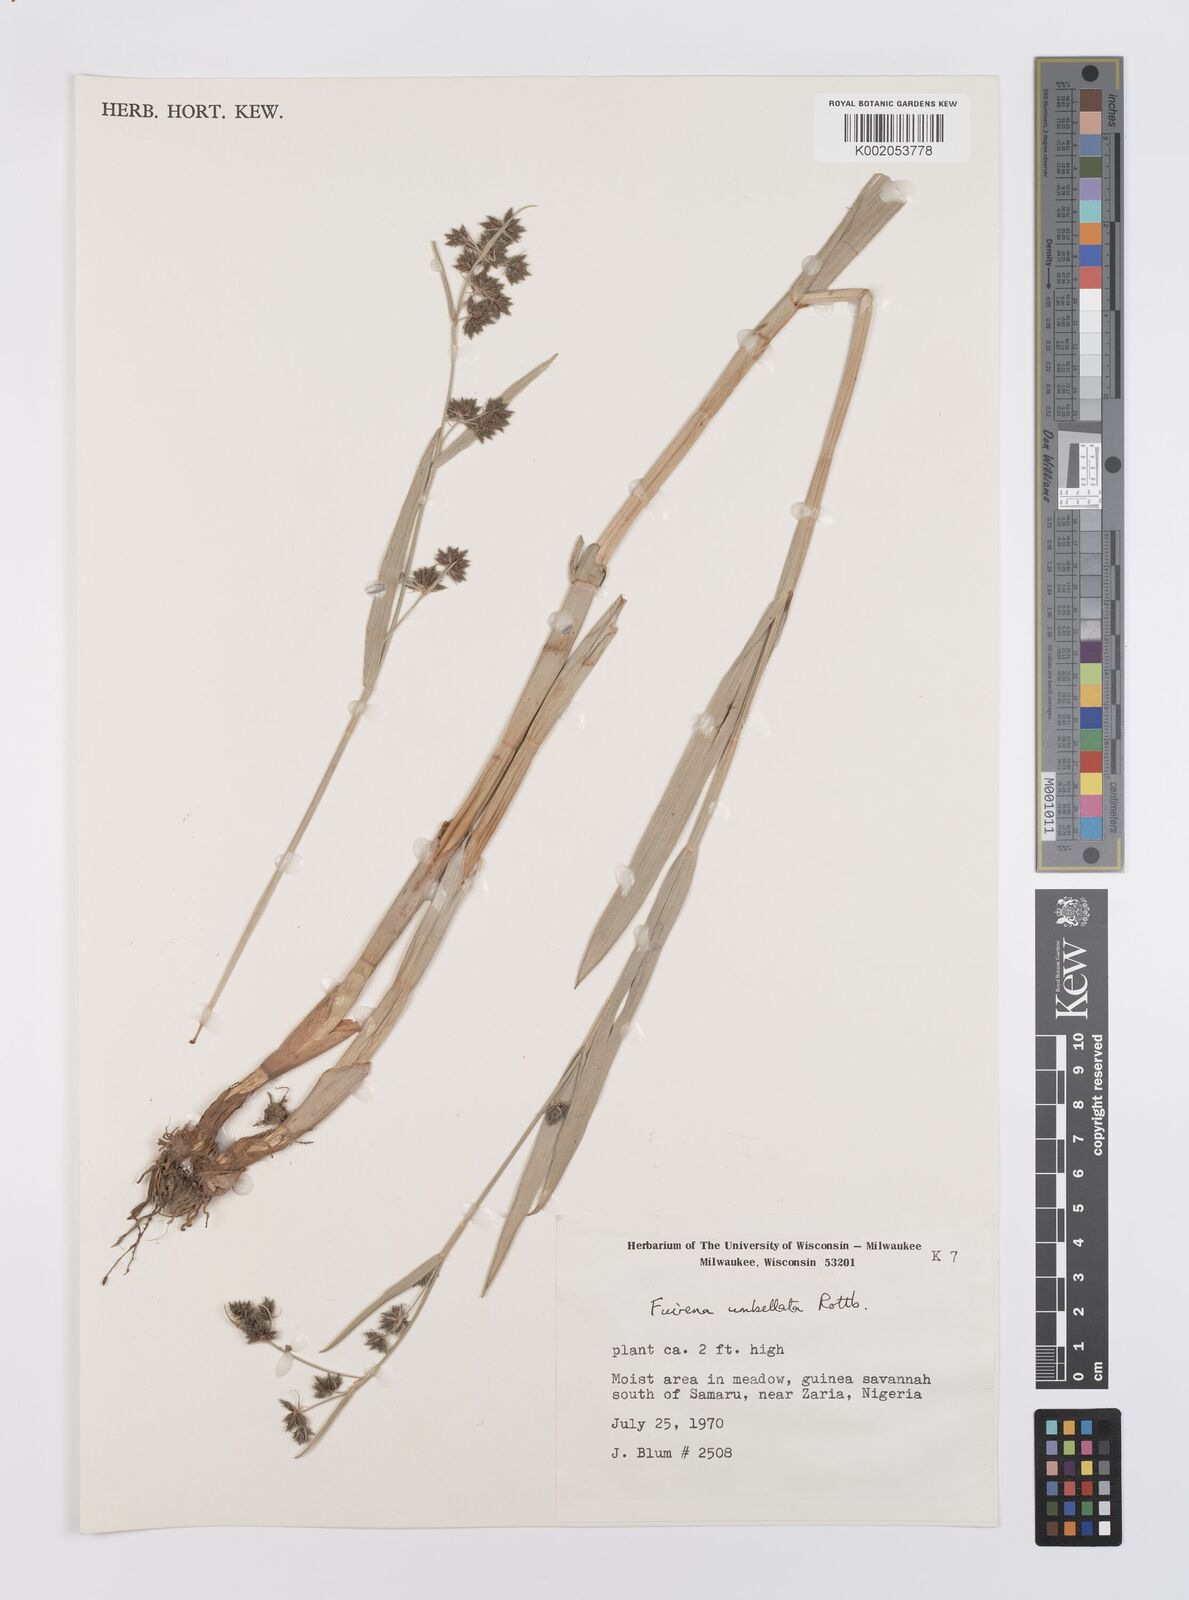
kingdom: Plantae
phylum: Tracheophyta
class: Liliopsida
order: Poales
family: Cyperaceae
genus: Fuirena
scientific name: Fuirena umbellata
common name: Yefen
